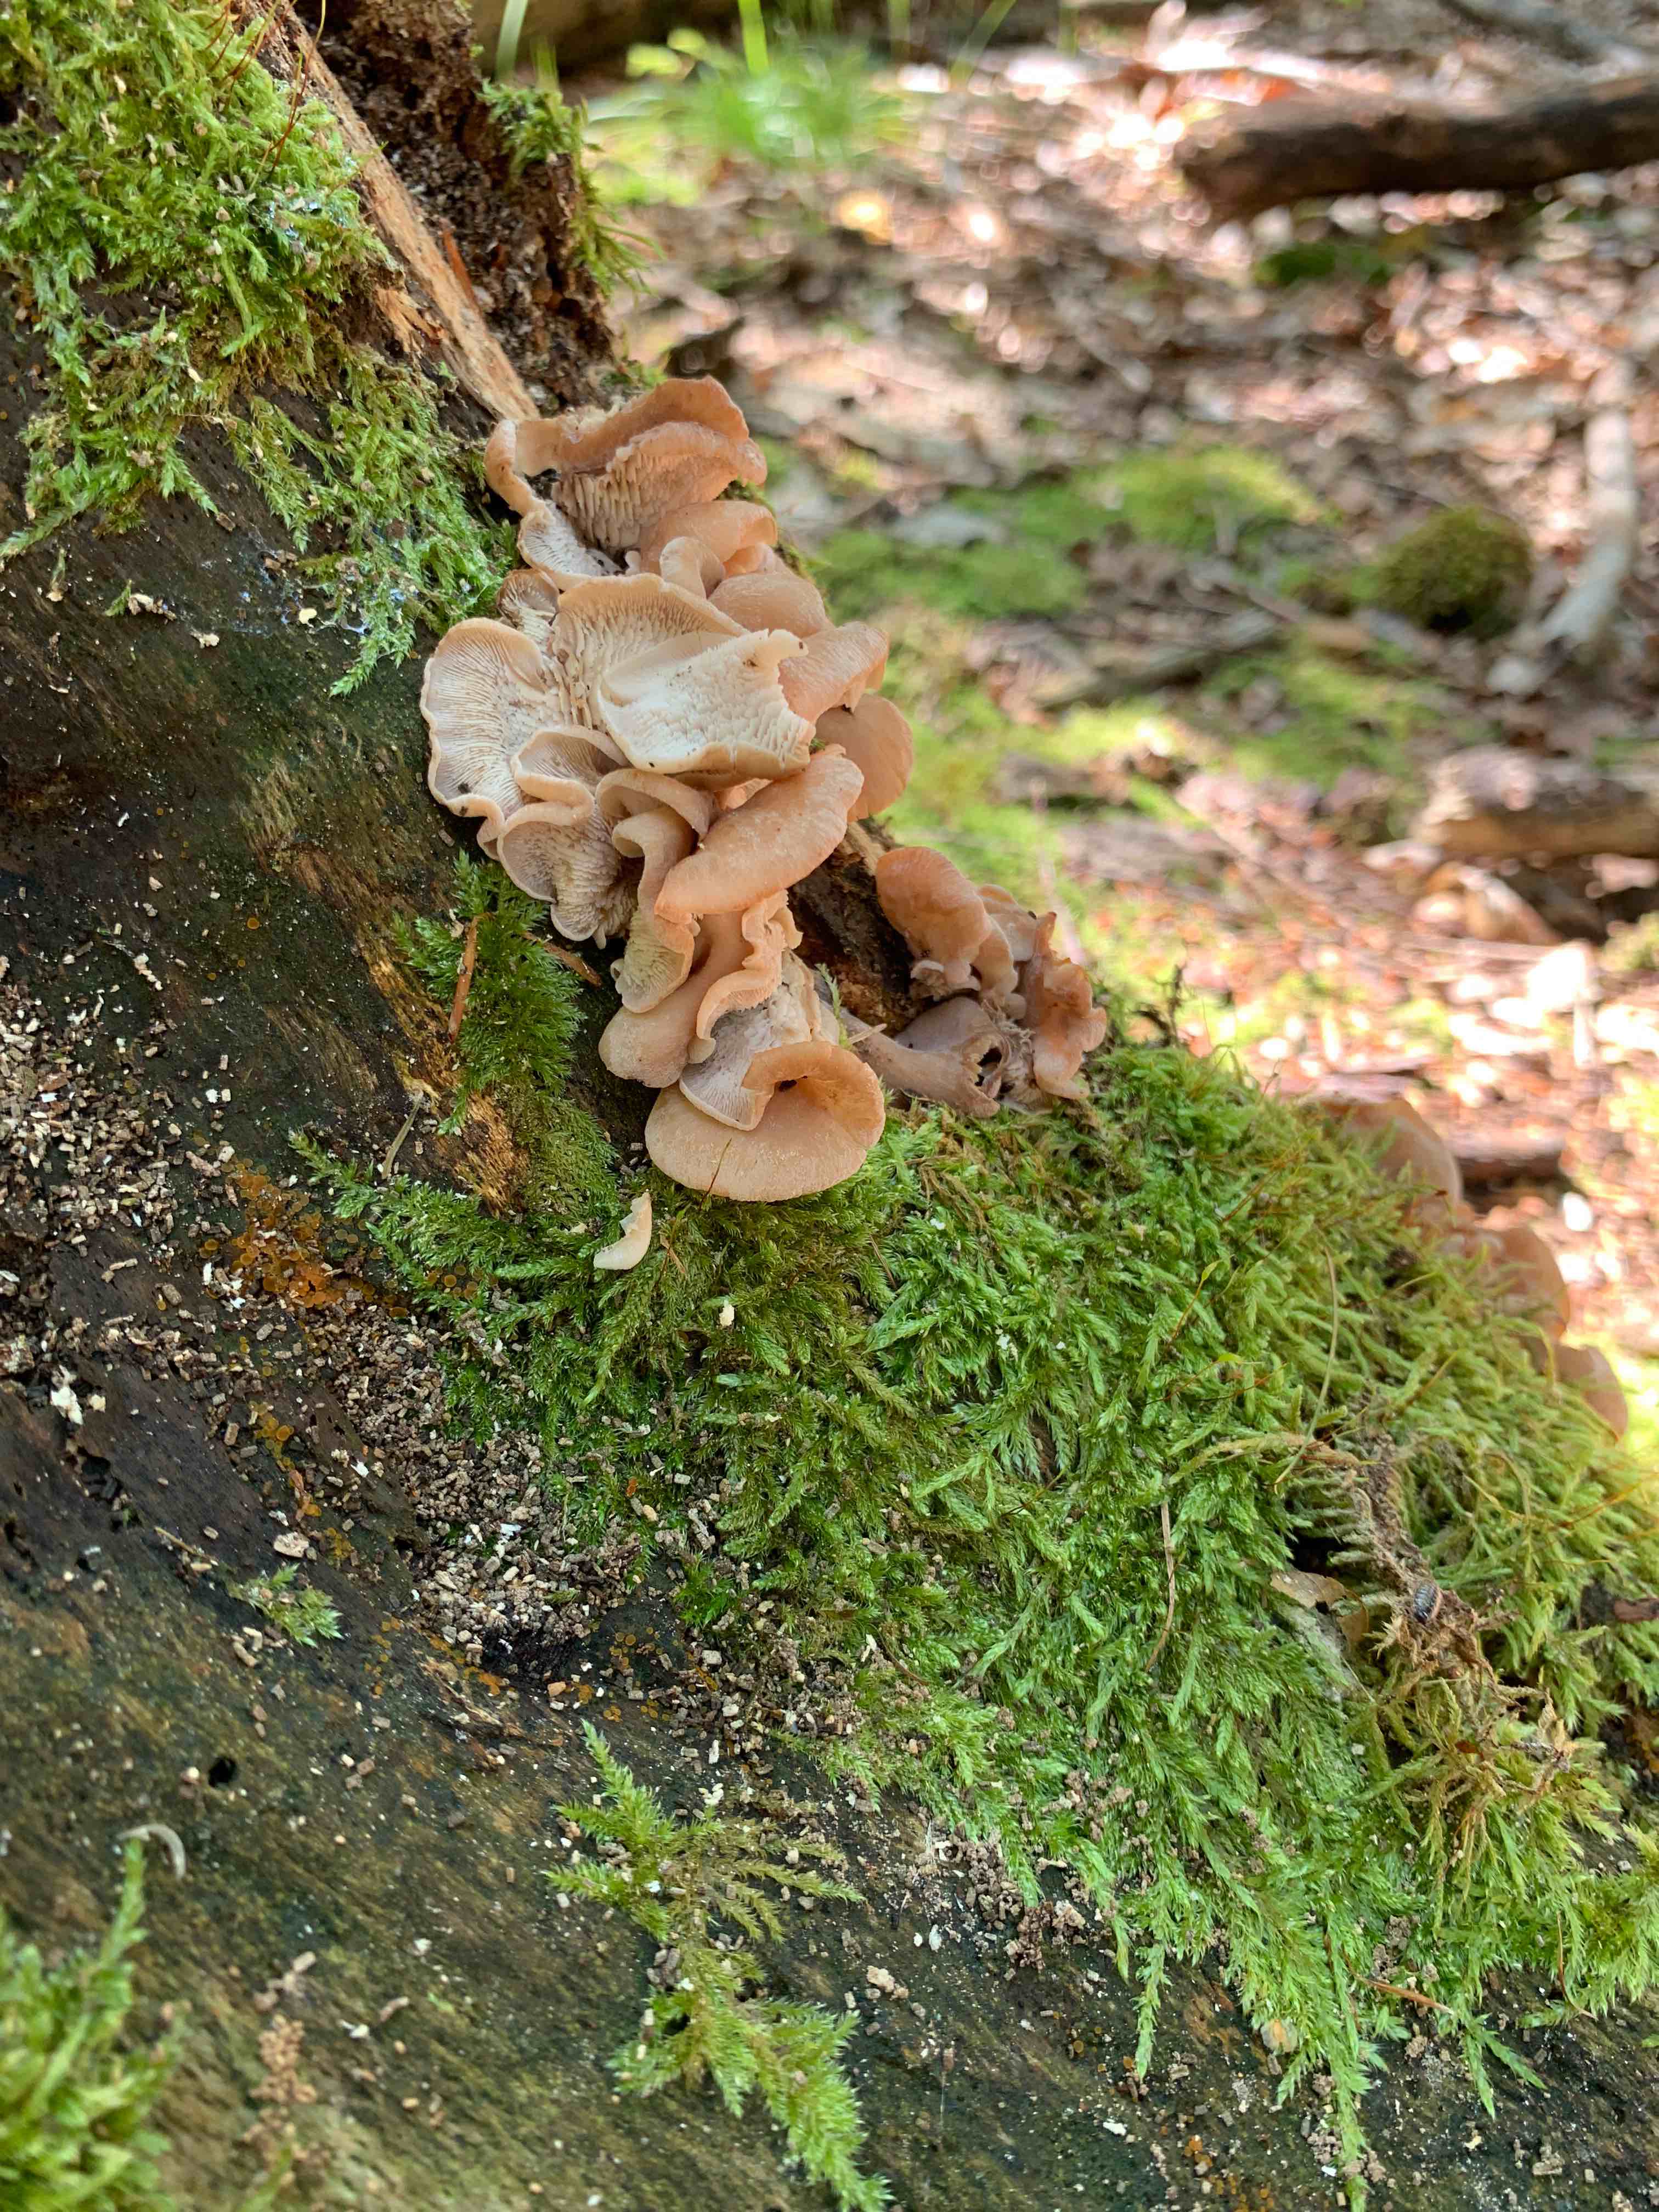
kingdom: Fungi
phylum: Basidiomycota
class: Agaricomycetes
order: Polyporales
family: Meruliaceae
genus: Phlebia
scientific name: Phlebia tremellosa
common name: bævrende åresvamp
